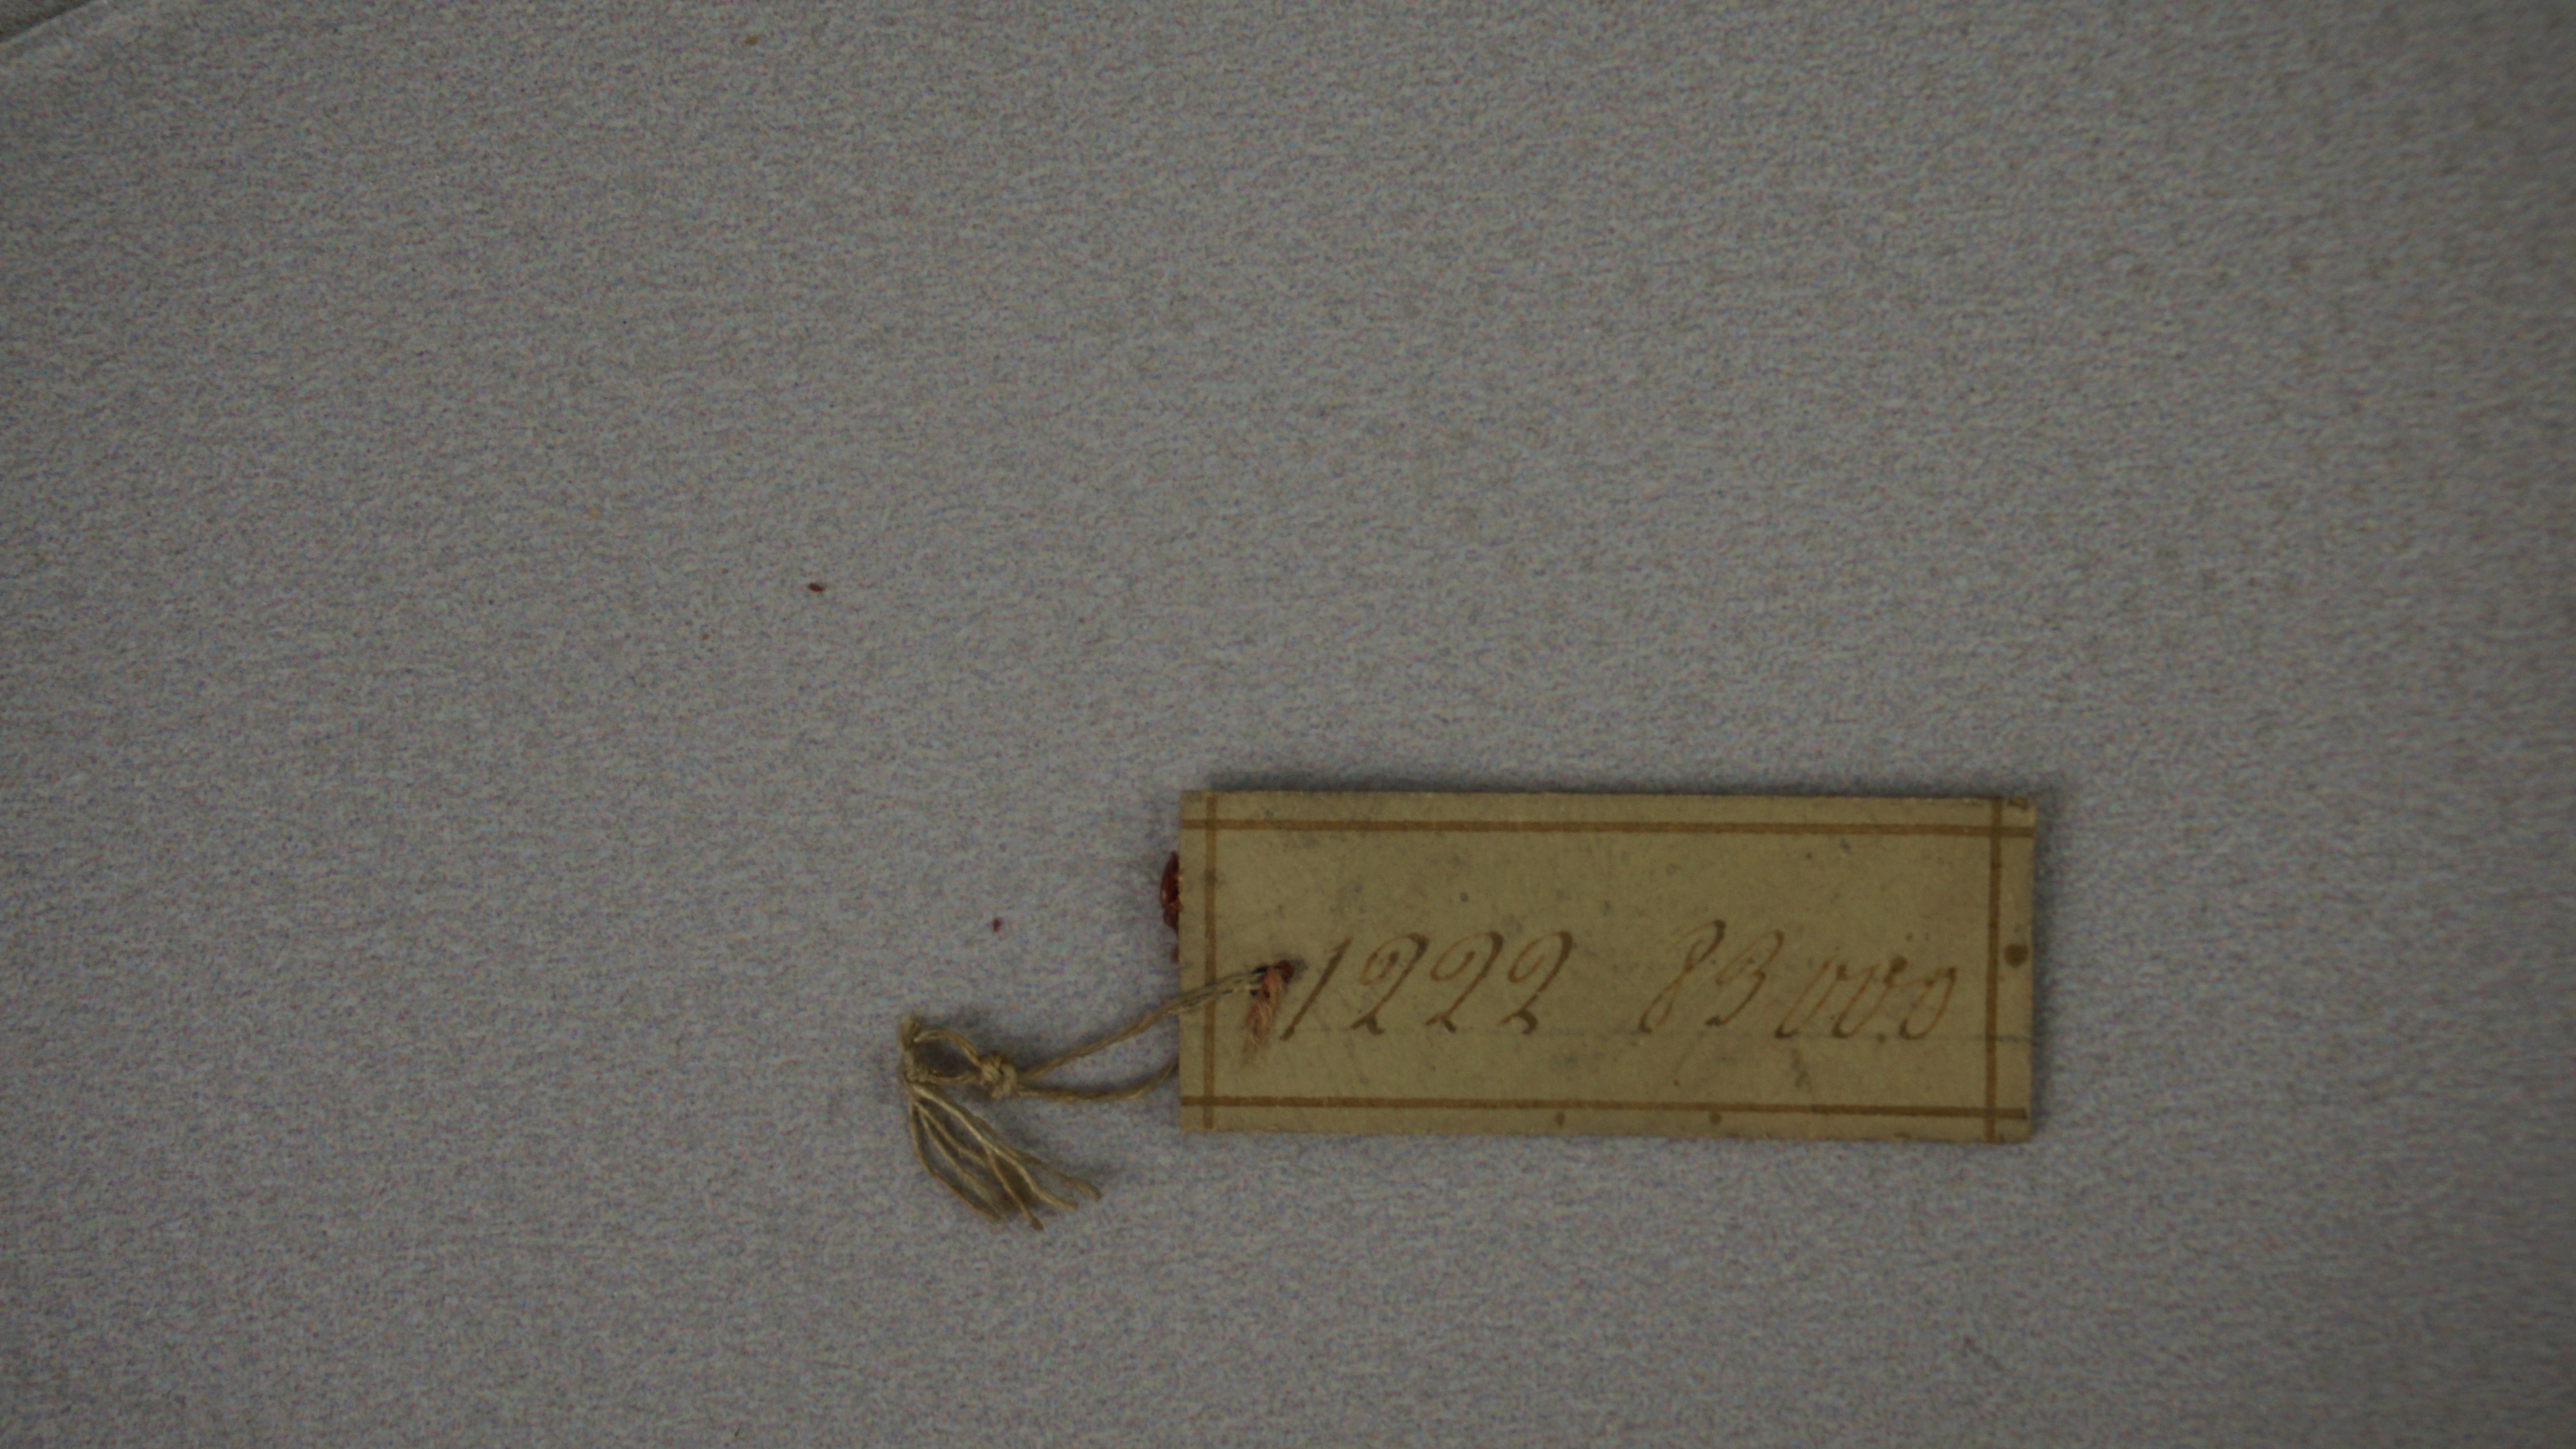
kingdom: Animalia
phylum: Chordata
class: Aves
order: Passeriformes
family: Fringillidae
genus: Crithagra
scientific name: Crithagra sulphurata
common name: Brimstone canary
